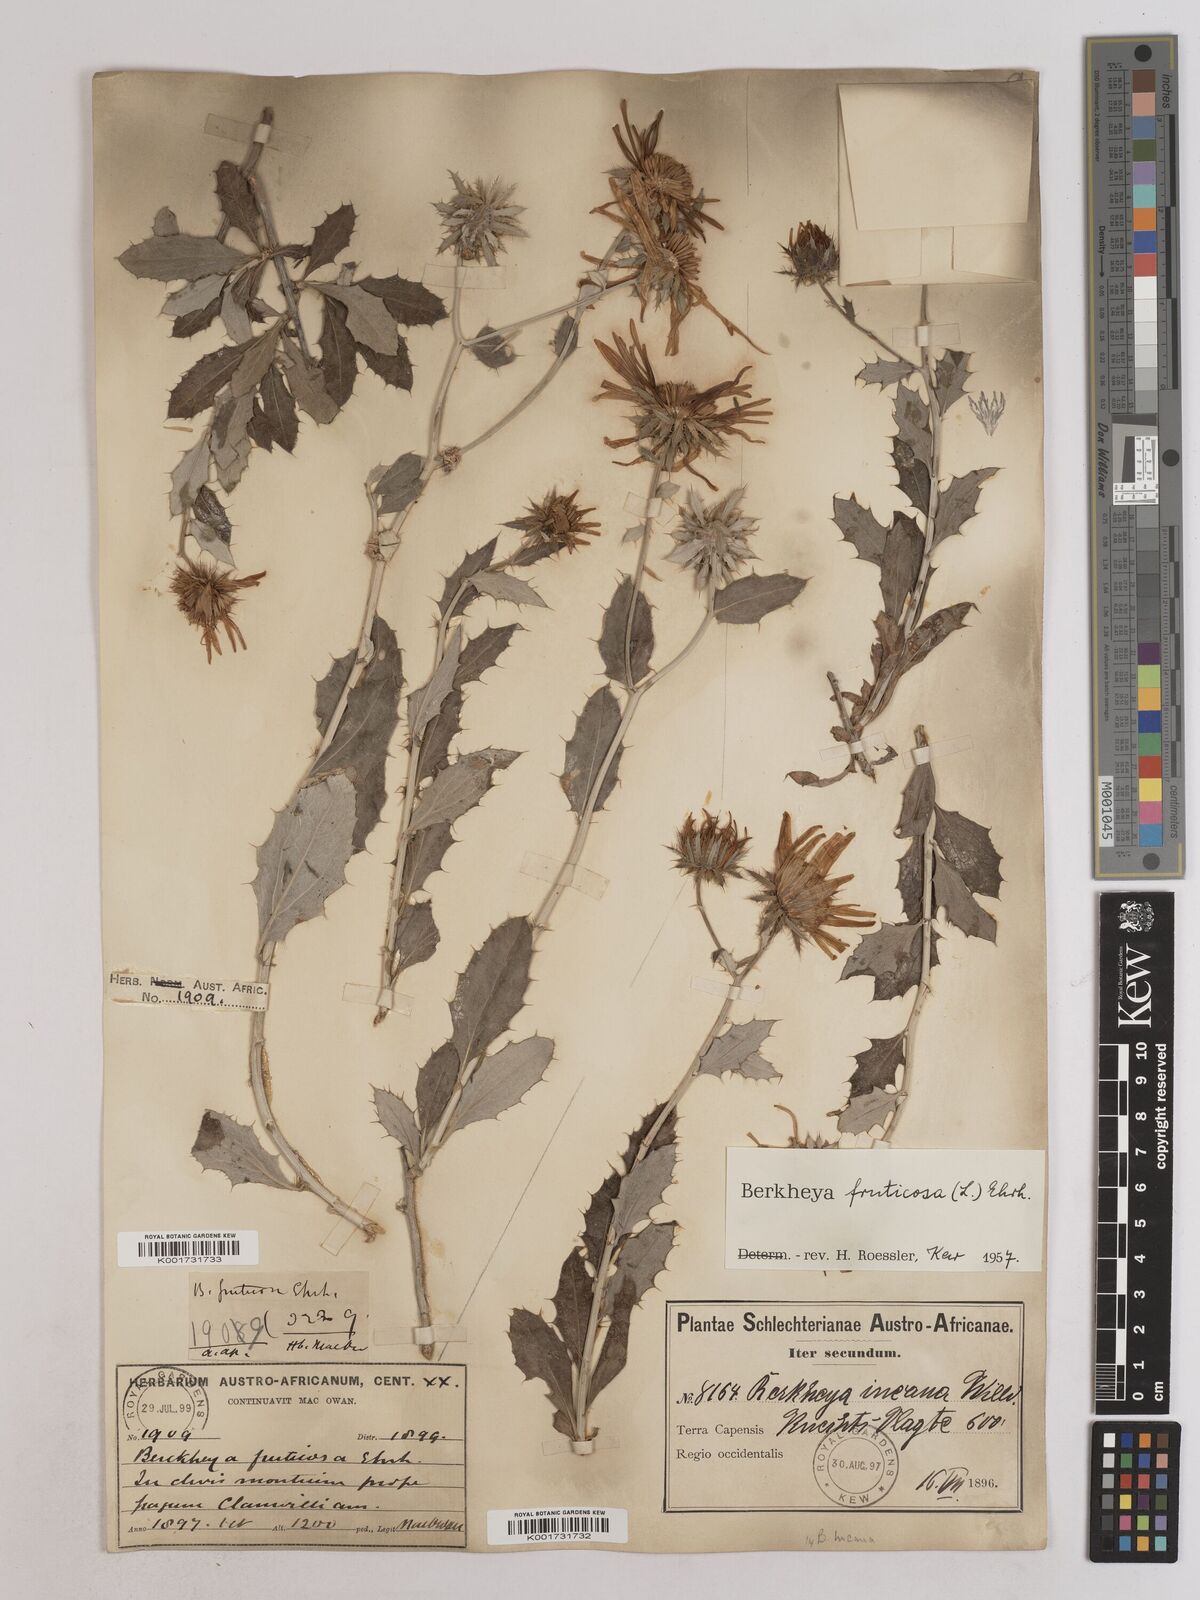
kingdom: Plantae
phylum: Tracheophyta
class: Magnoliopsida
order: Asterales
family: Asteraceae
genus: Berkheya
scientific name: Berkheya fruticosa
